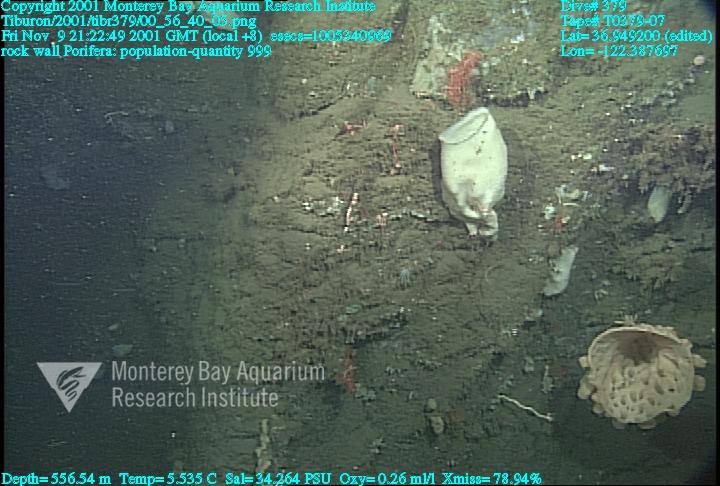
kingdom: Animalia
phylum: Porifera
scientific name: Porifera
